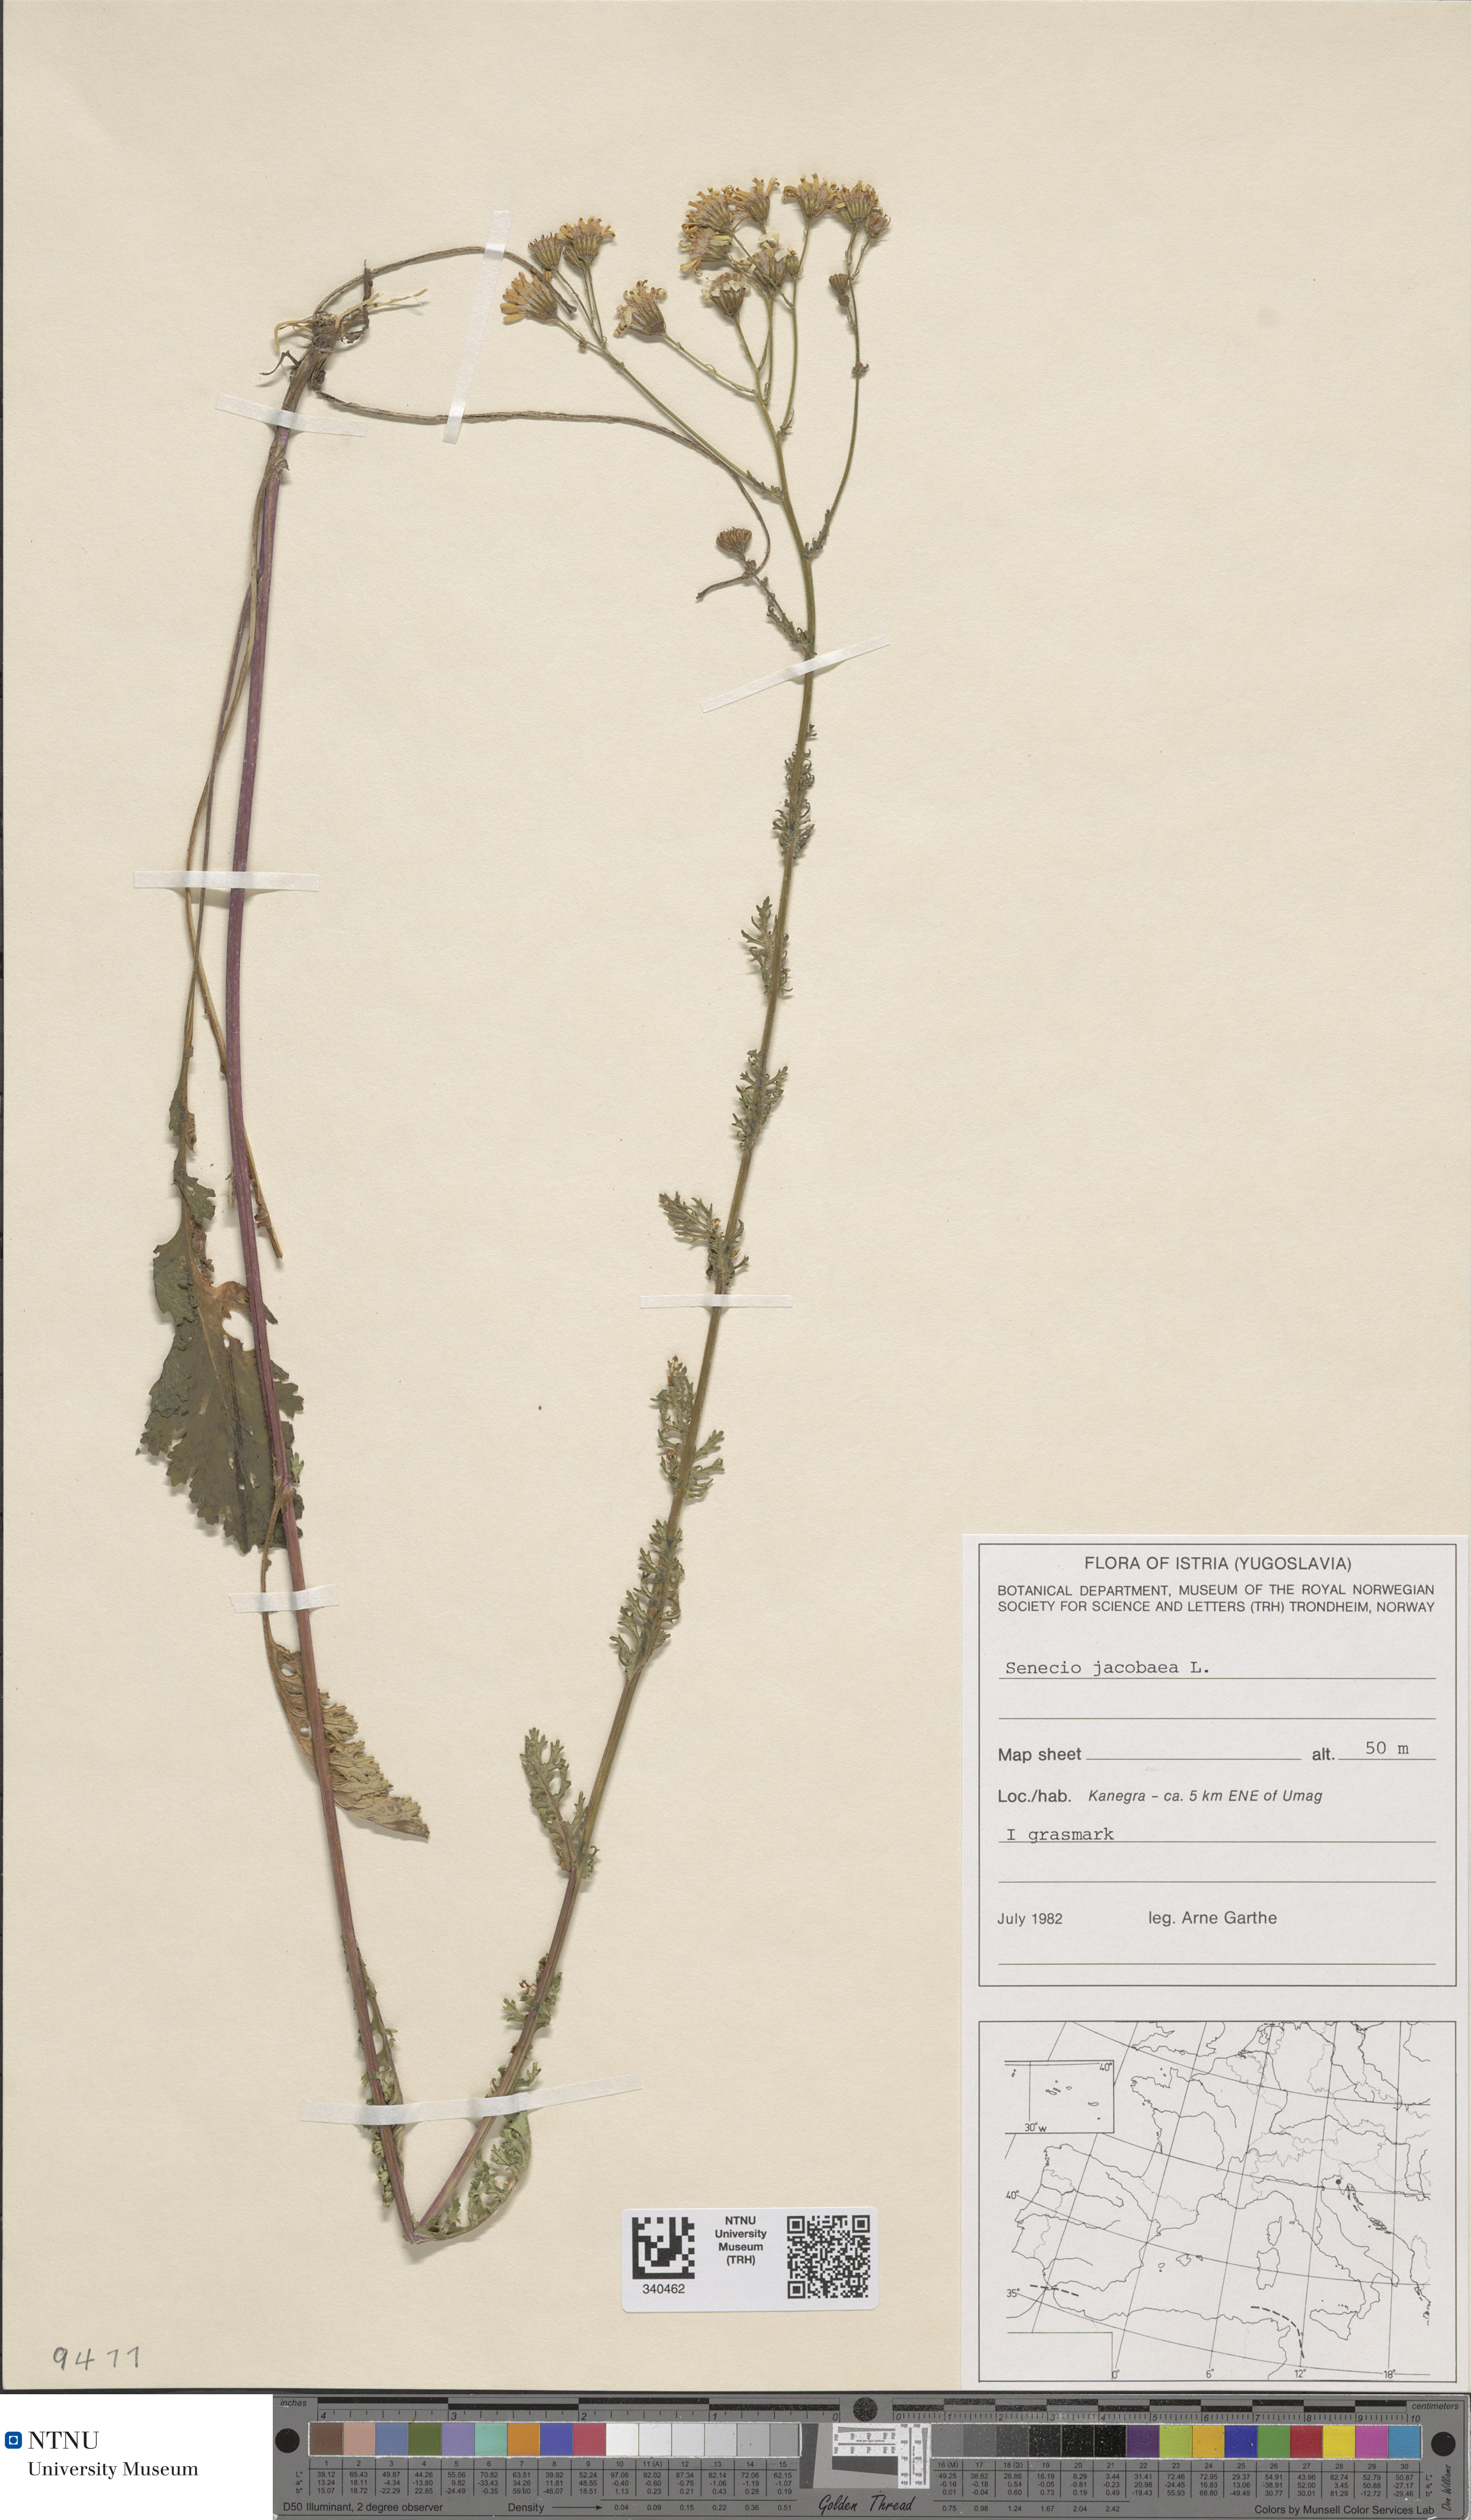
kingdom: Plantae
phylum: Tracheophyta
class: Magnoliopsida
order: Asterales
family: Asteraceae
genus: Jacobaea
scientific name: Jacobaea vulgaris
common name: Stinking willie
